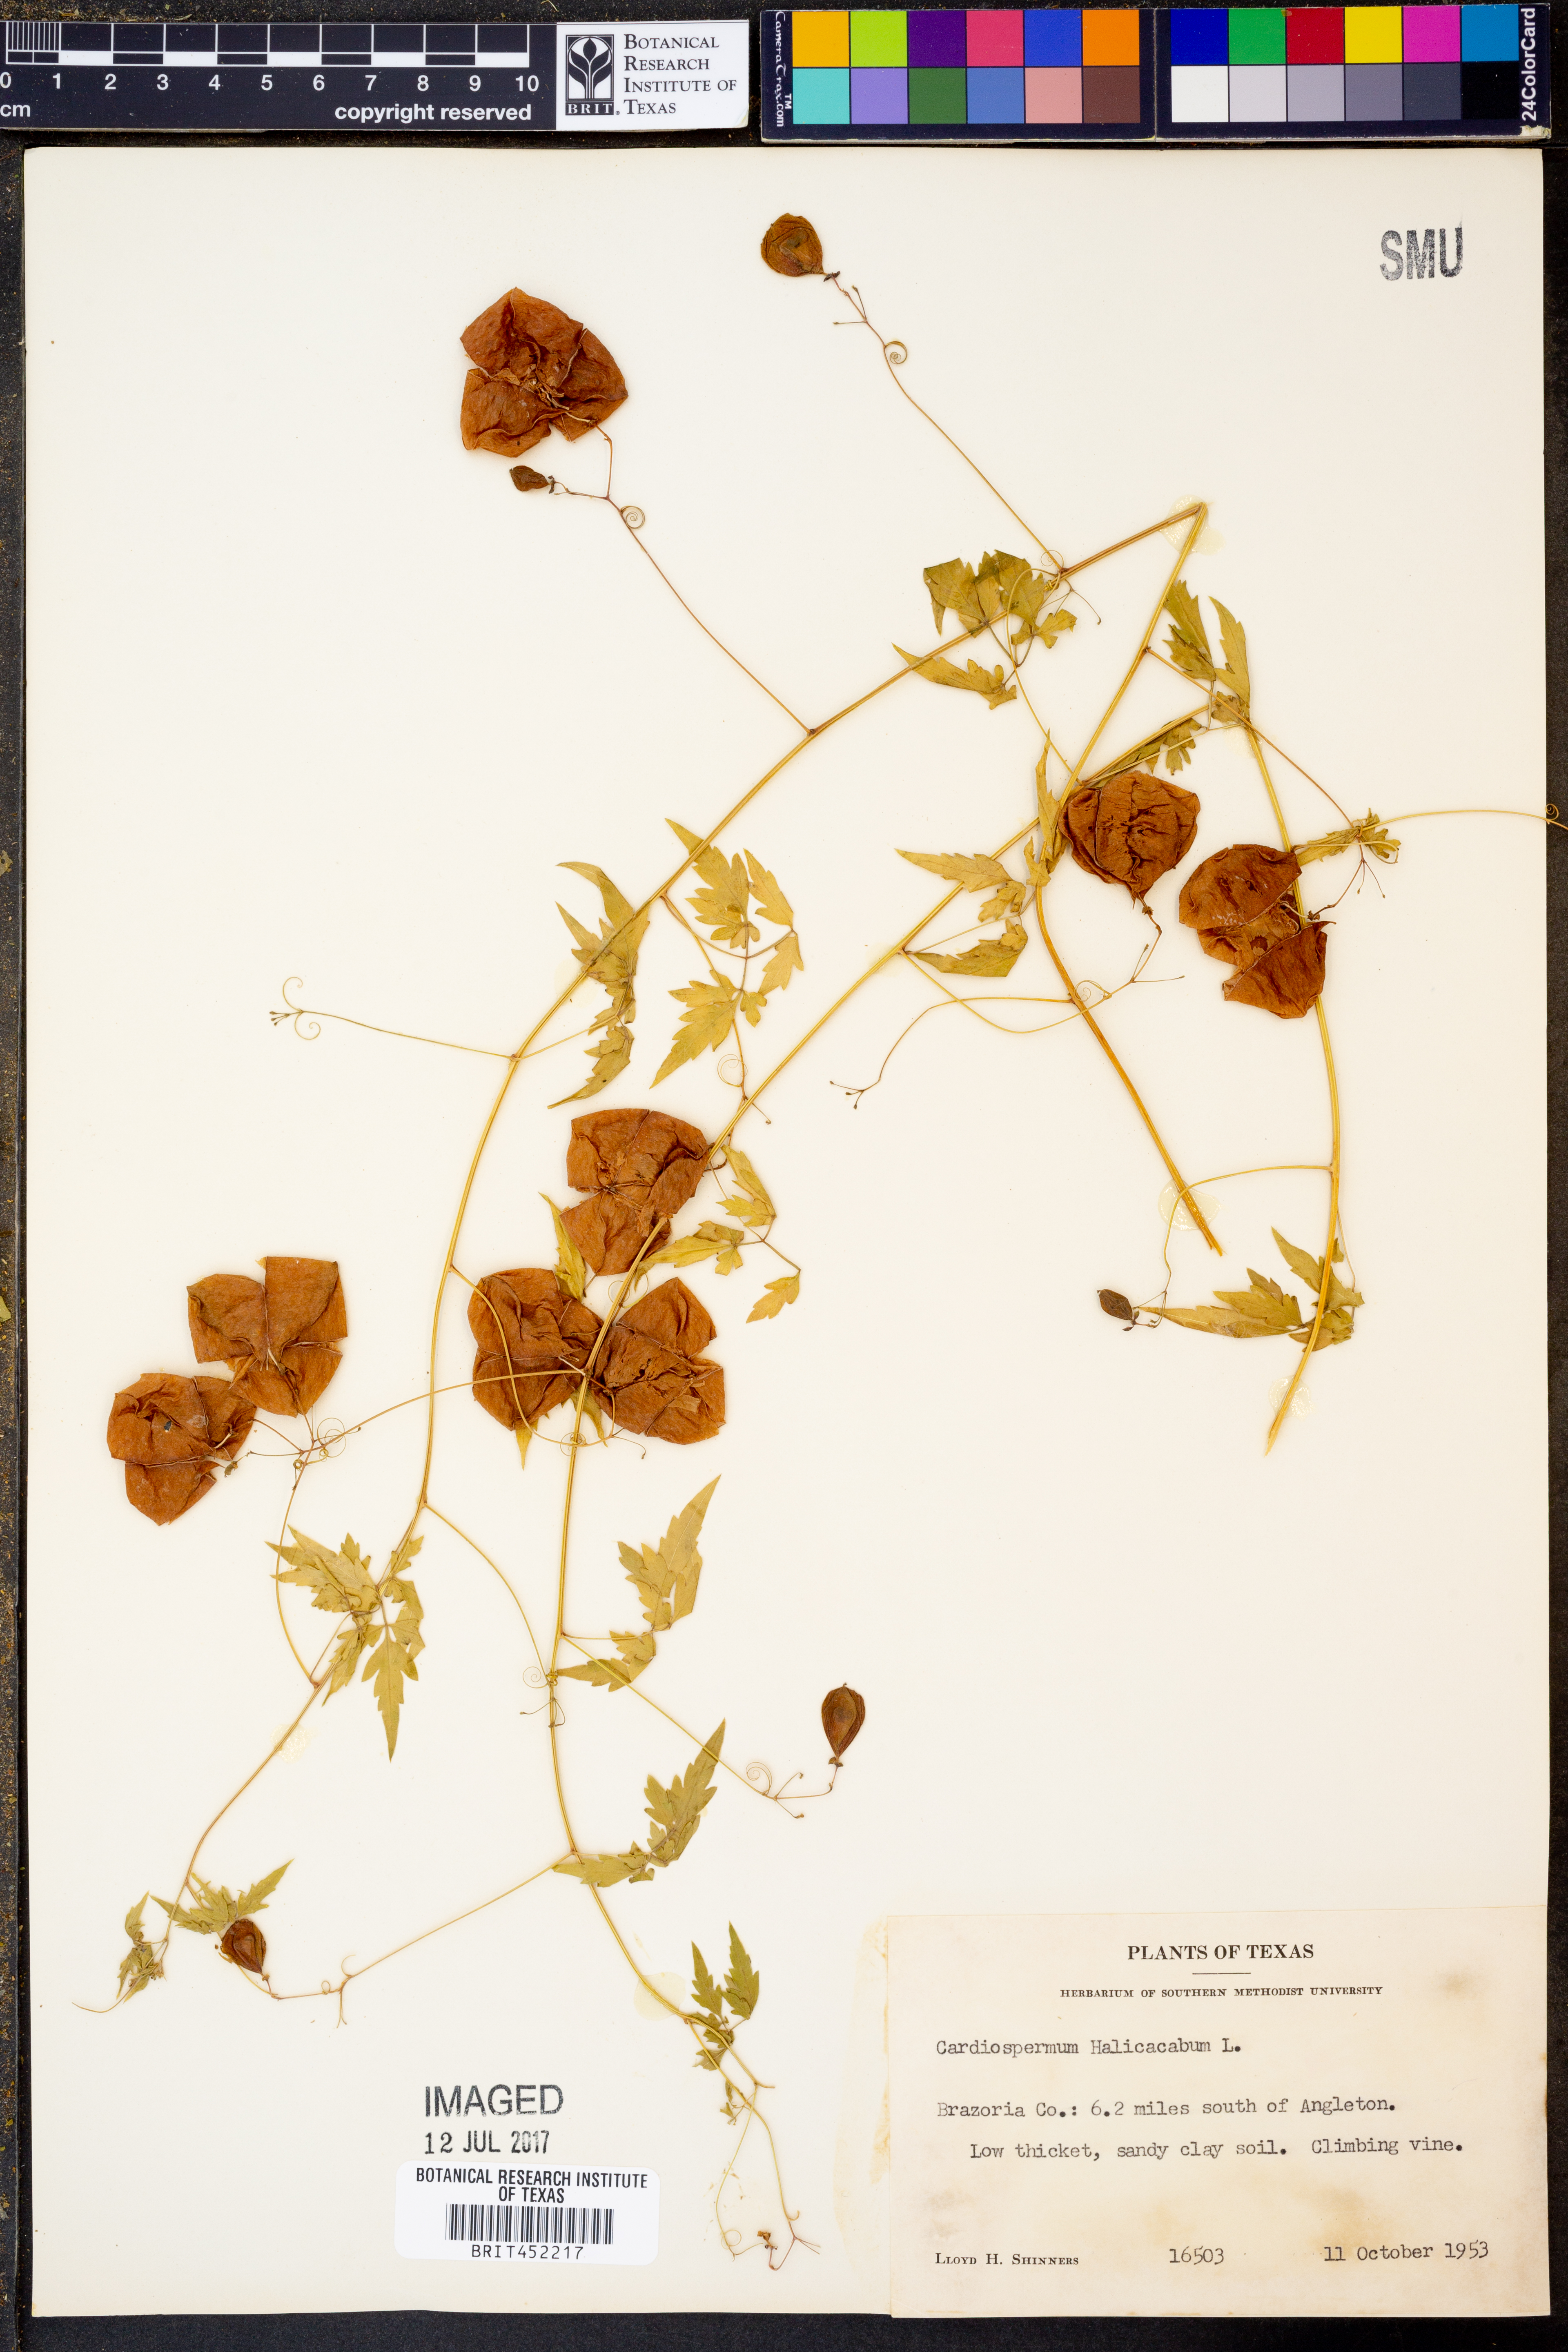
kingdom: Plantae
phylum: Tracheophyta
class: Magnoliopsida
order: Sapindales
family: Sapindaceae
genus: Cardiospermum
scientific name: Cardiospermum halicacabum
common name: Balloon vine
